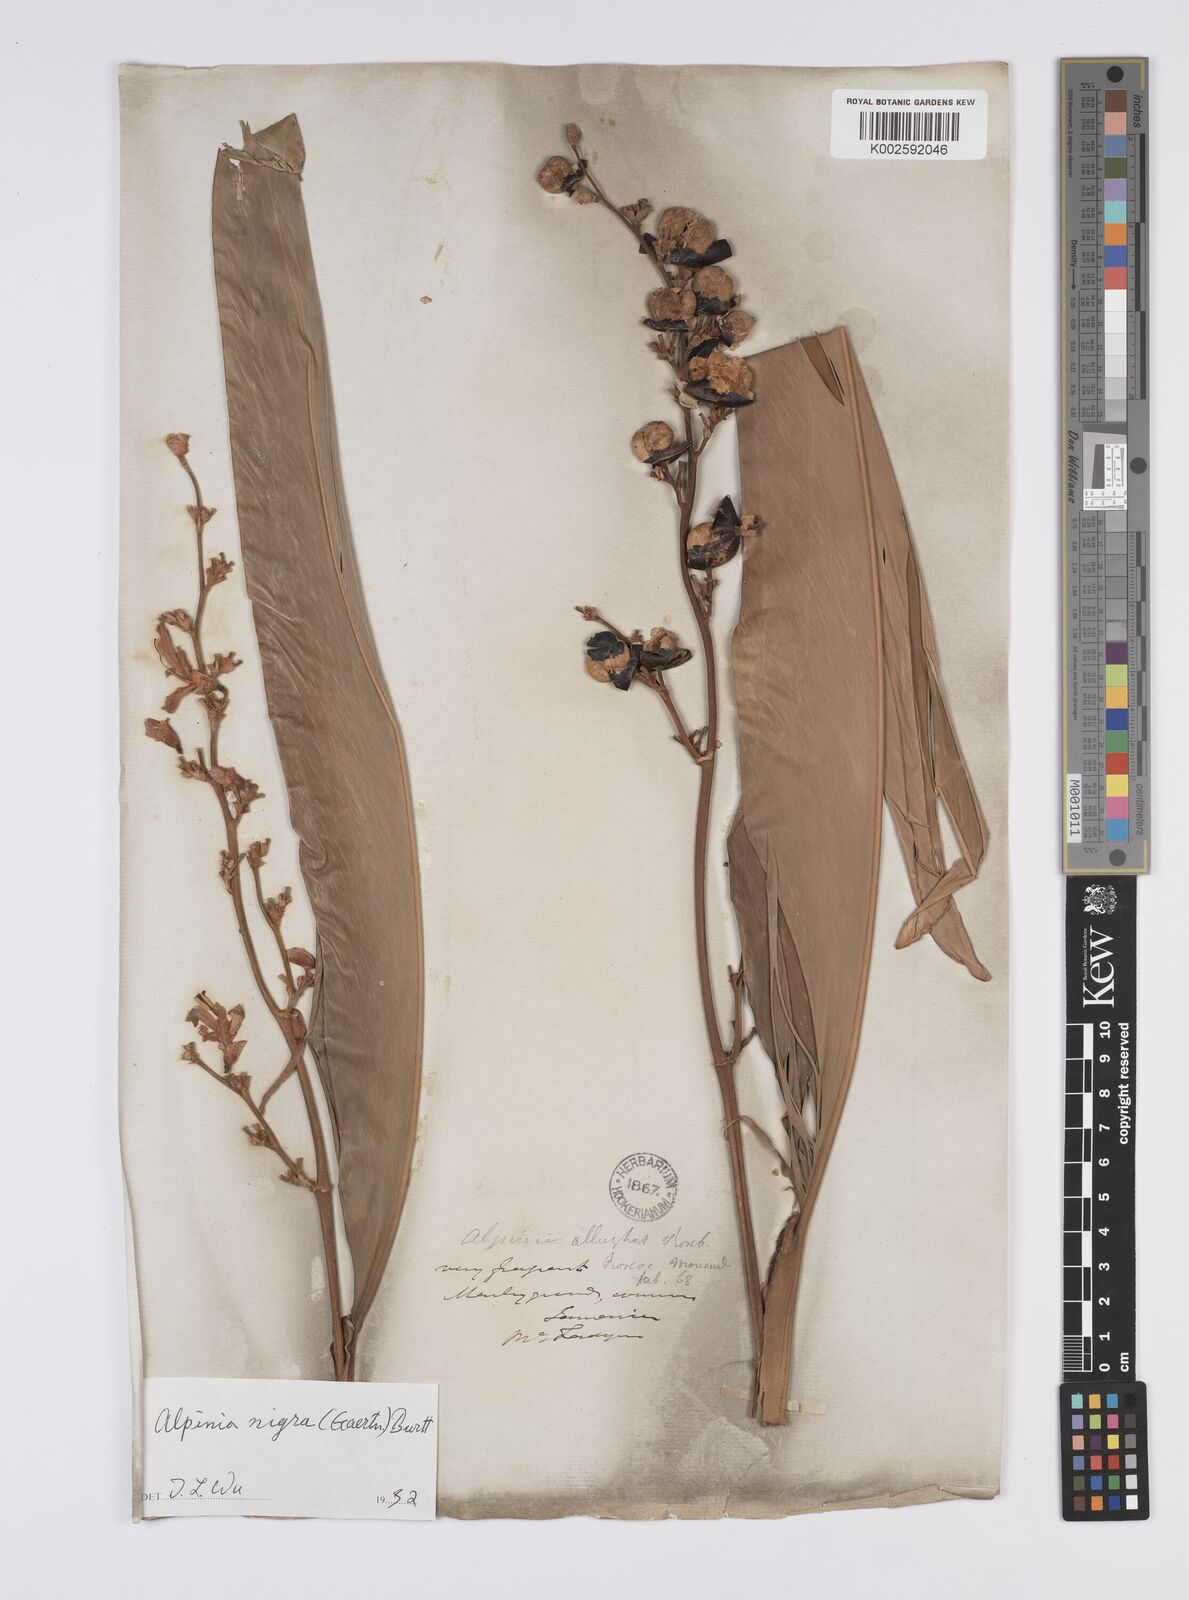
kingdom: Plantae
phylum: Tracheophyta
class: Liliopsida
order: Zingiberales
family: Zingiberaceae
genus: Alpinia
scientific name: Alpinia nigra
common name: Black fruited galanga
